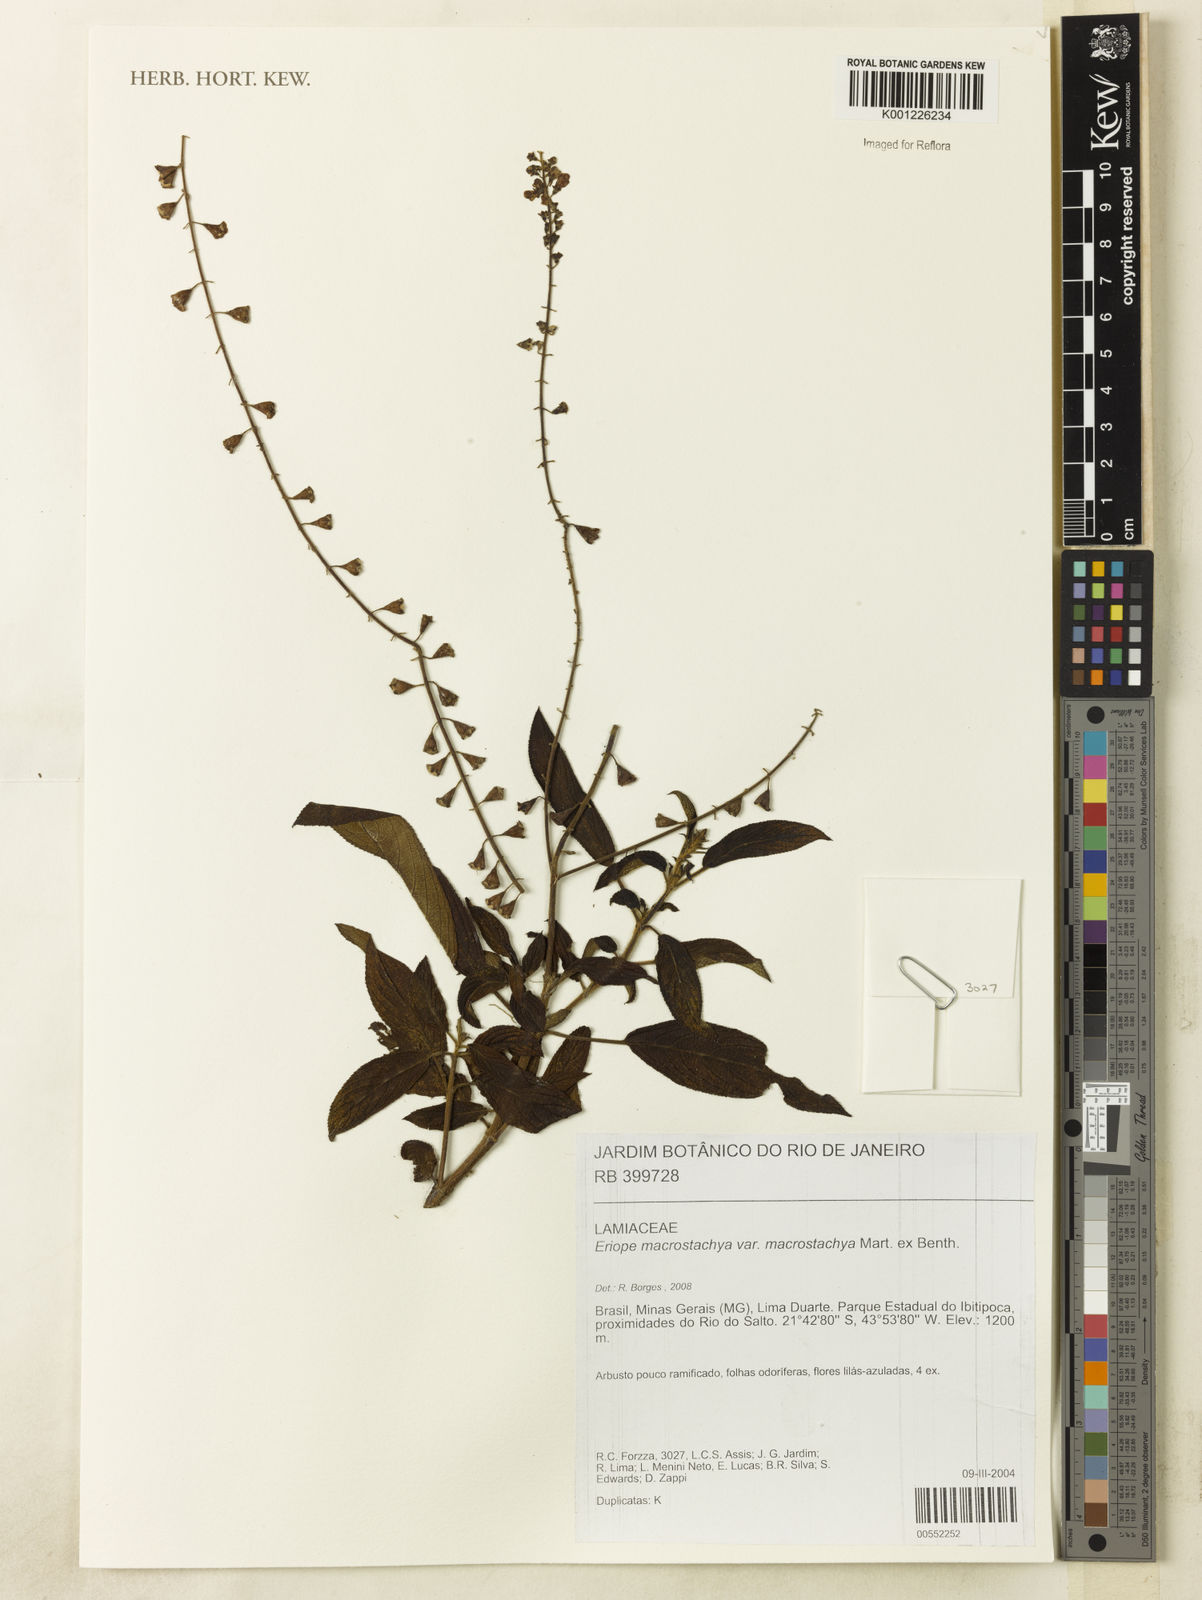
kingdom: Plantae
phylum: Tracheophyta
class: Magnoliopsida
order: Lamiales
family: Lamiaceae
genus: Eriope
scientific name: Eriope macrostachya
